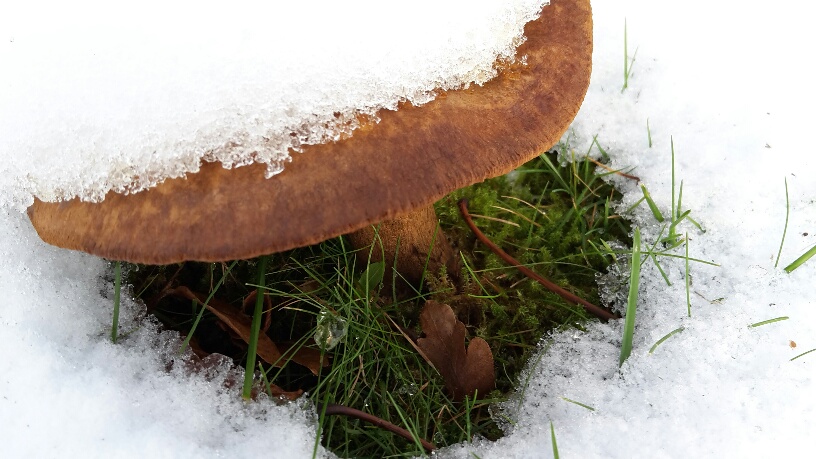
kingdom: Fungi
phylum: Basidiomycota
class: Agaricomycetes
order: Boletales
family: Paxillaceae
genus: Paxillus
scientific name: Paxillus obscurisporus
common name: mahognisporet netbladhat
